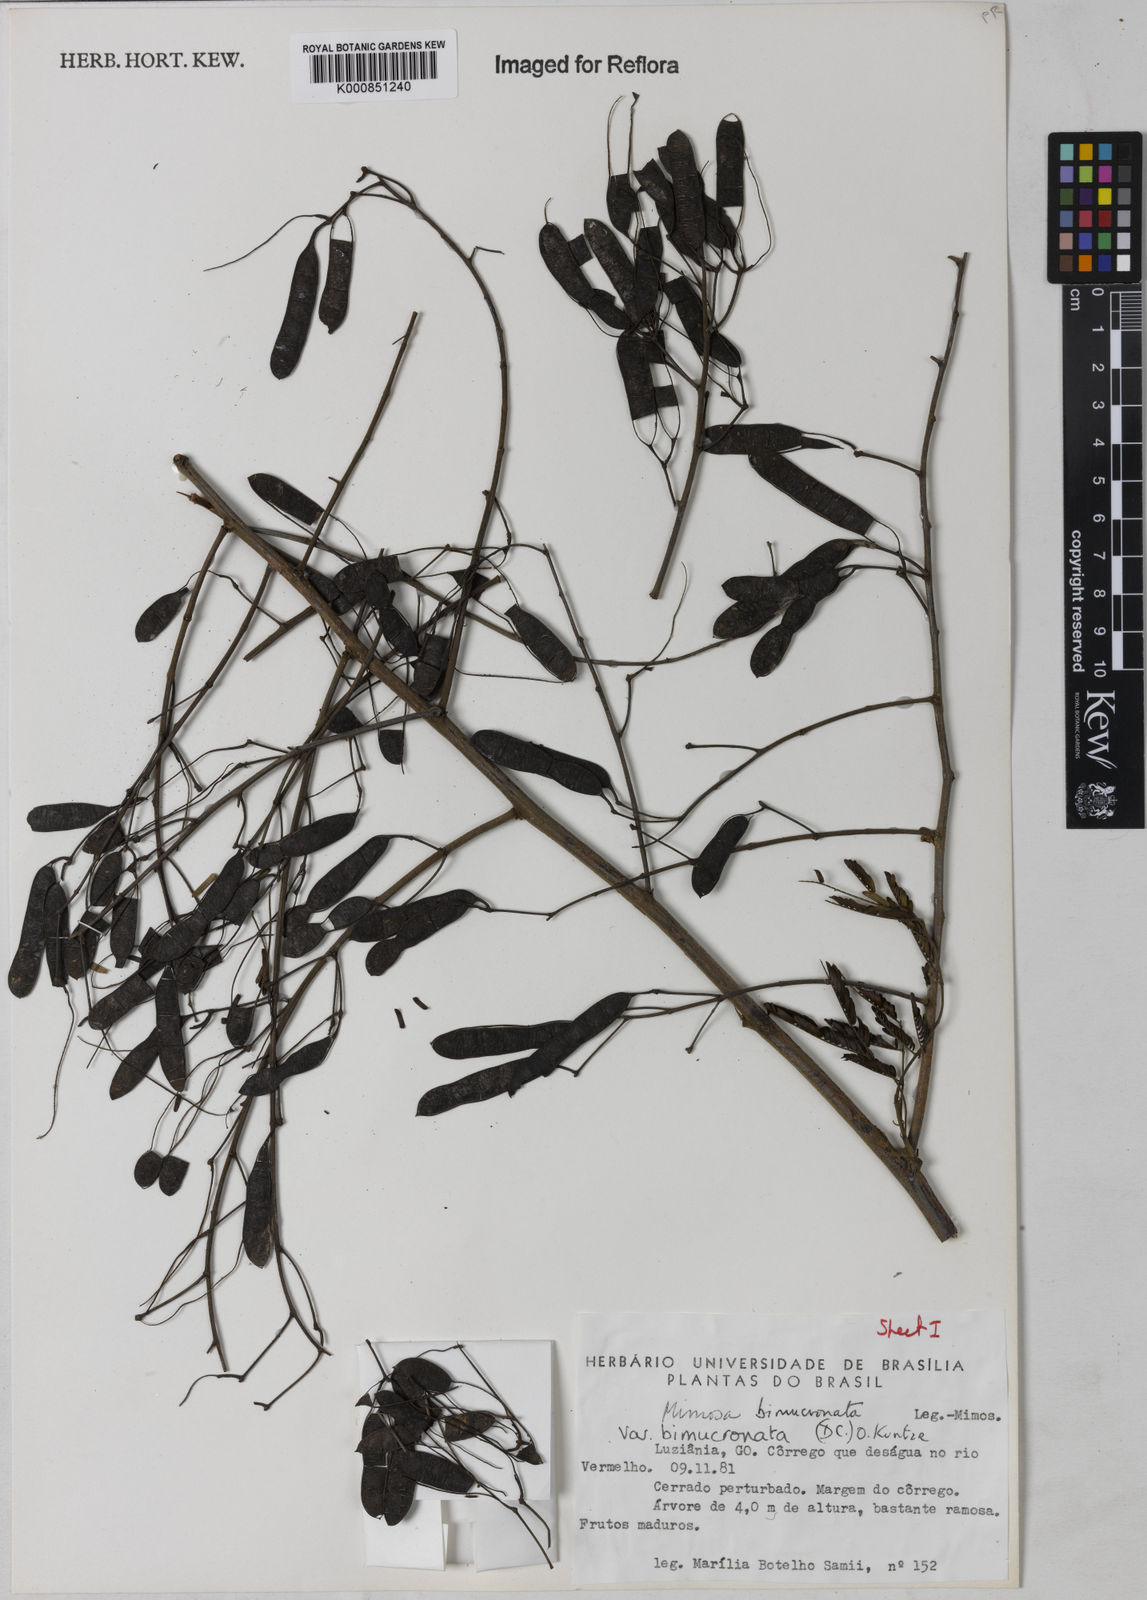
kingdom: Plantae
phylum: Tracheophyta
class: Magnoliopsida
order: Fabales
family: Fabaceae
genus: Mimosa
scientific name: Mimosa bimucronata
